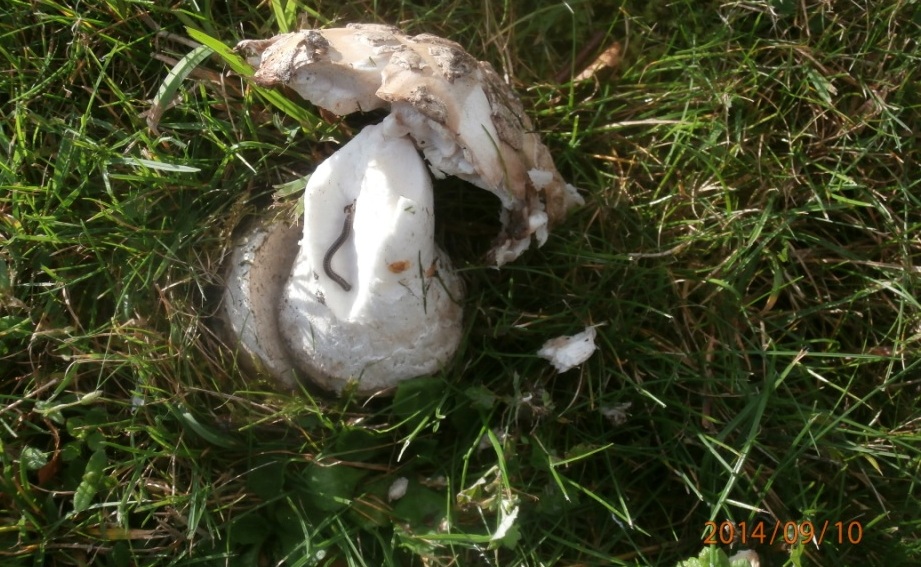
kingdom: Fungi
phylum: Basidiomycota
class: Agaricomycetes
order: Agaricales
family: Amanitaceae
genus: Amanita
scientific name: Amanita
